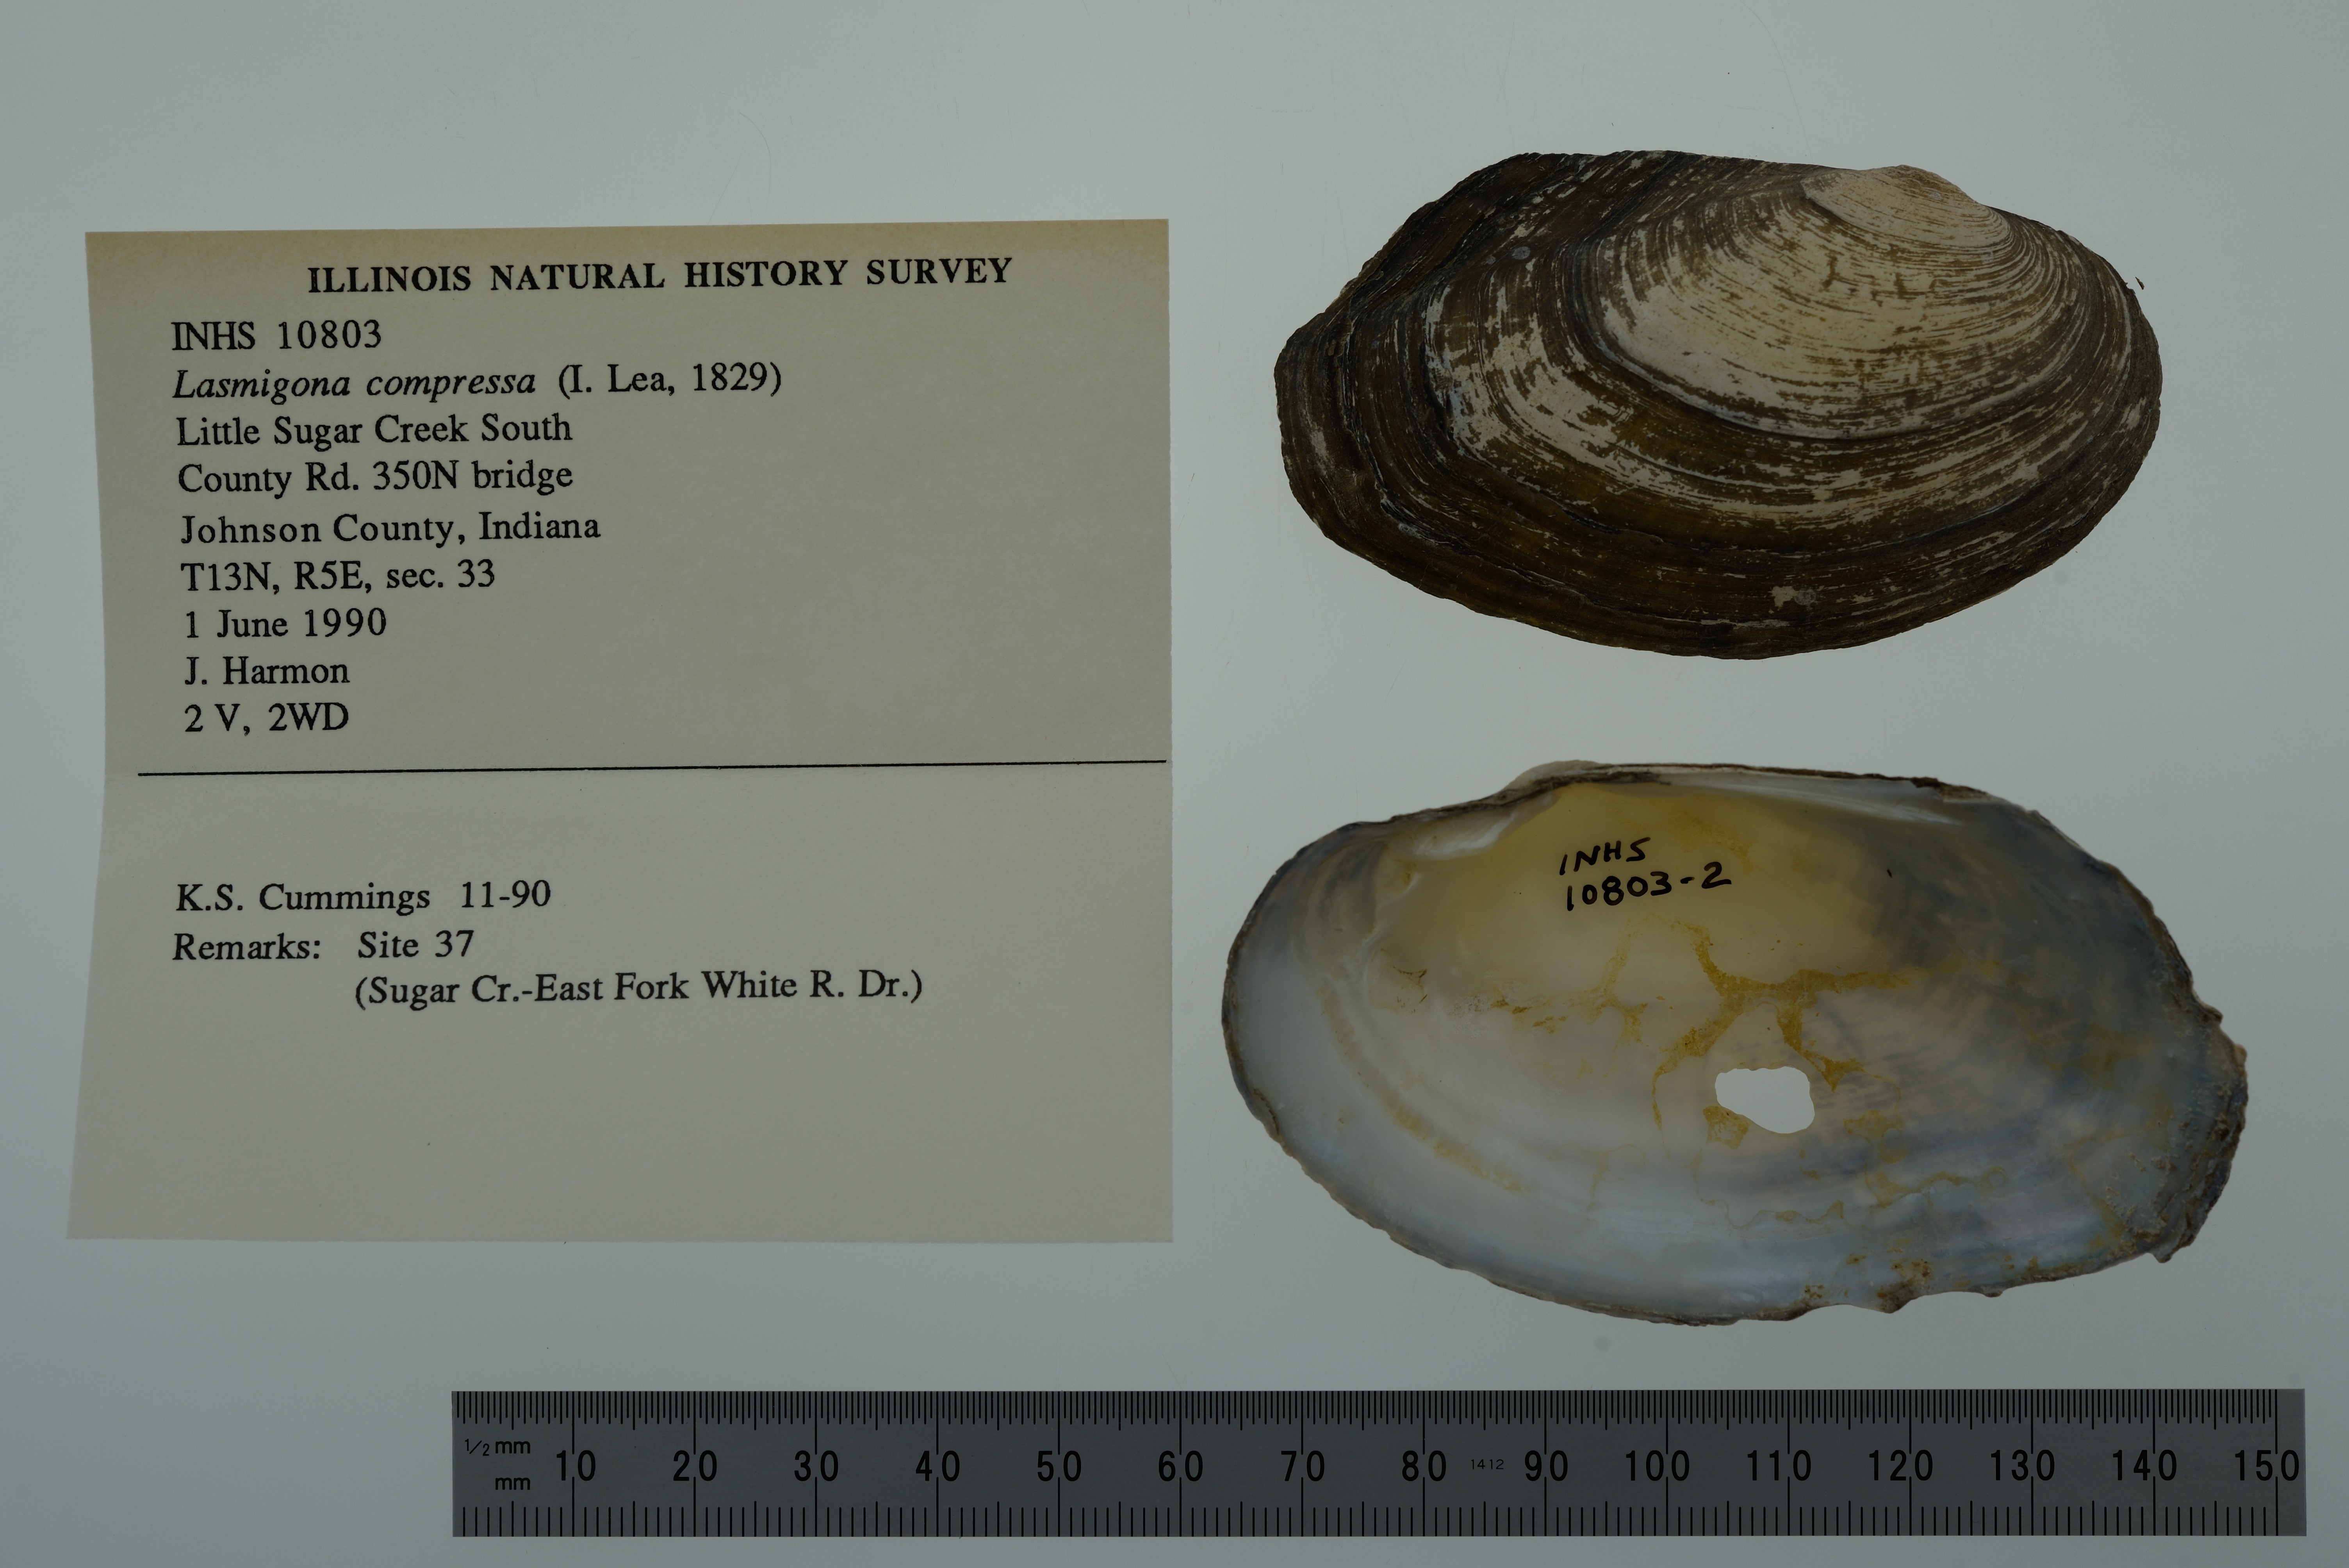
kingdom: Animalia
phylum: Mollusca
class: Bivalvia
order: Unionida
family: Unionidae
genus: Lasmigona
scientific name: Lasmigona compressa
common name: Creek heelsplitter
